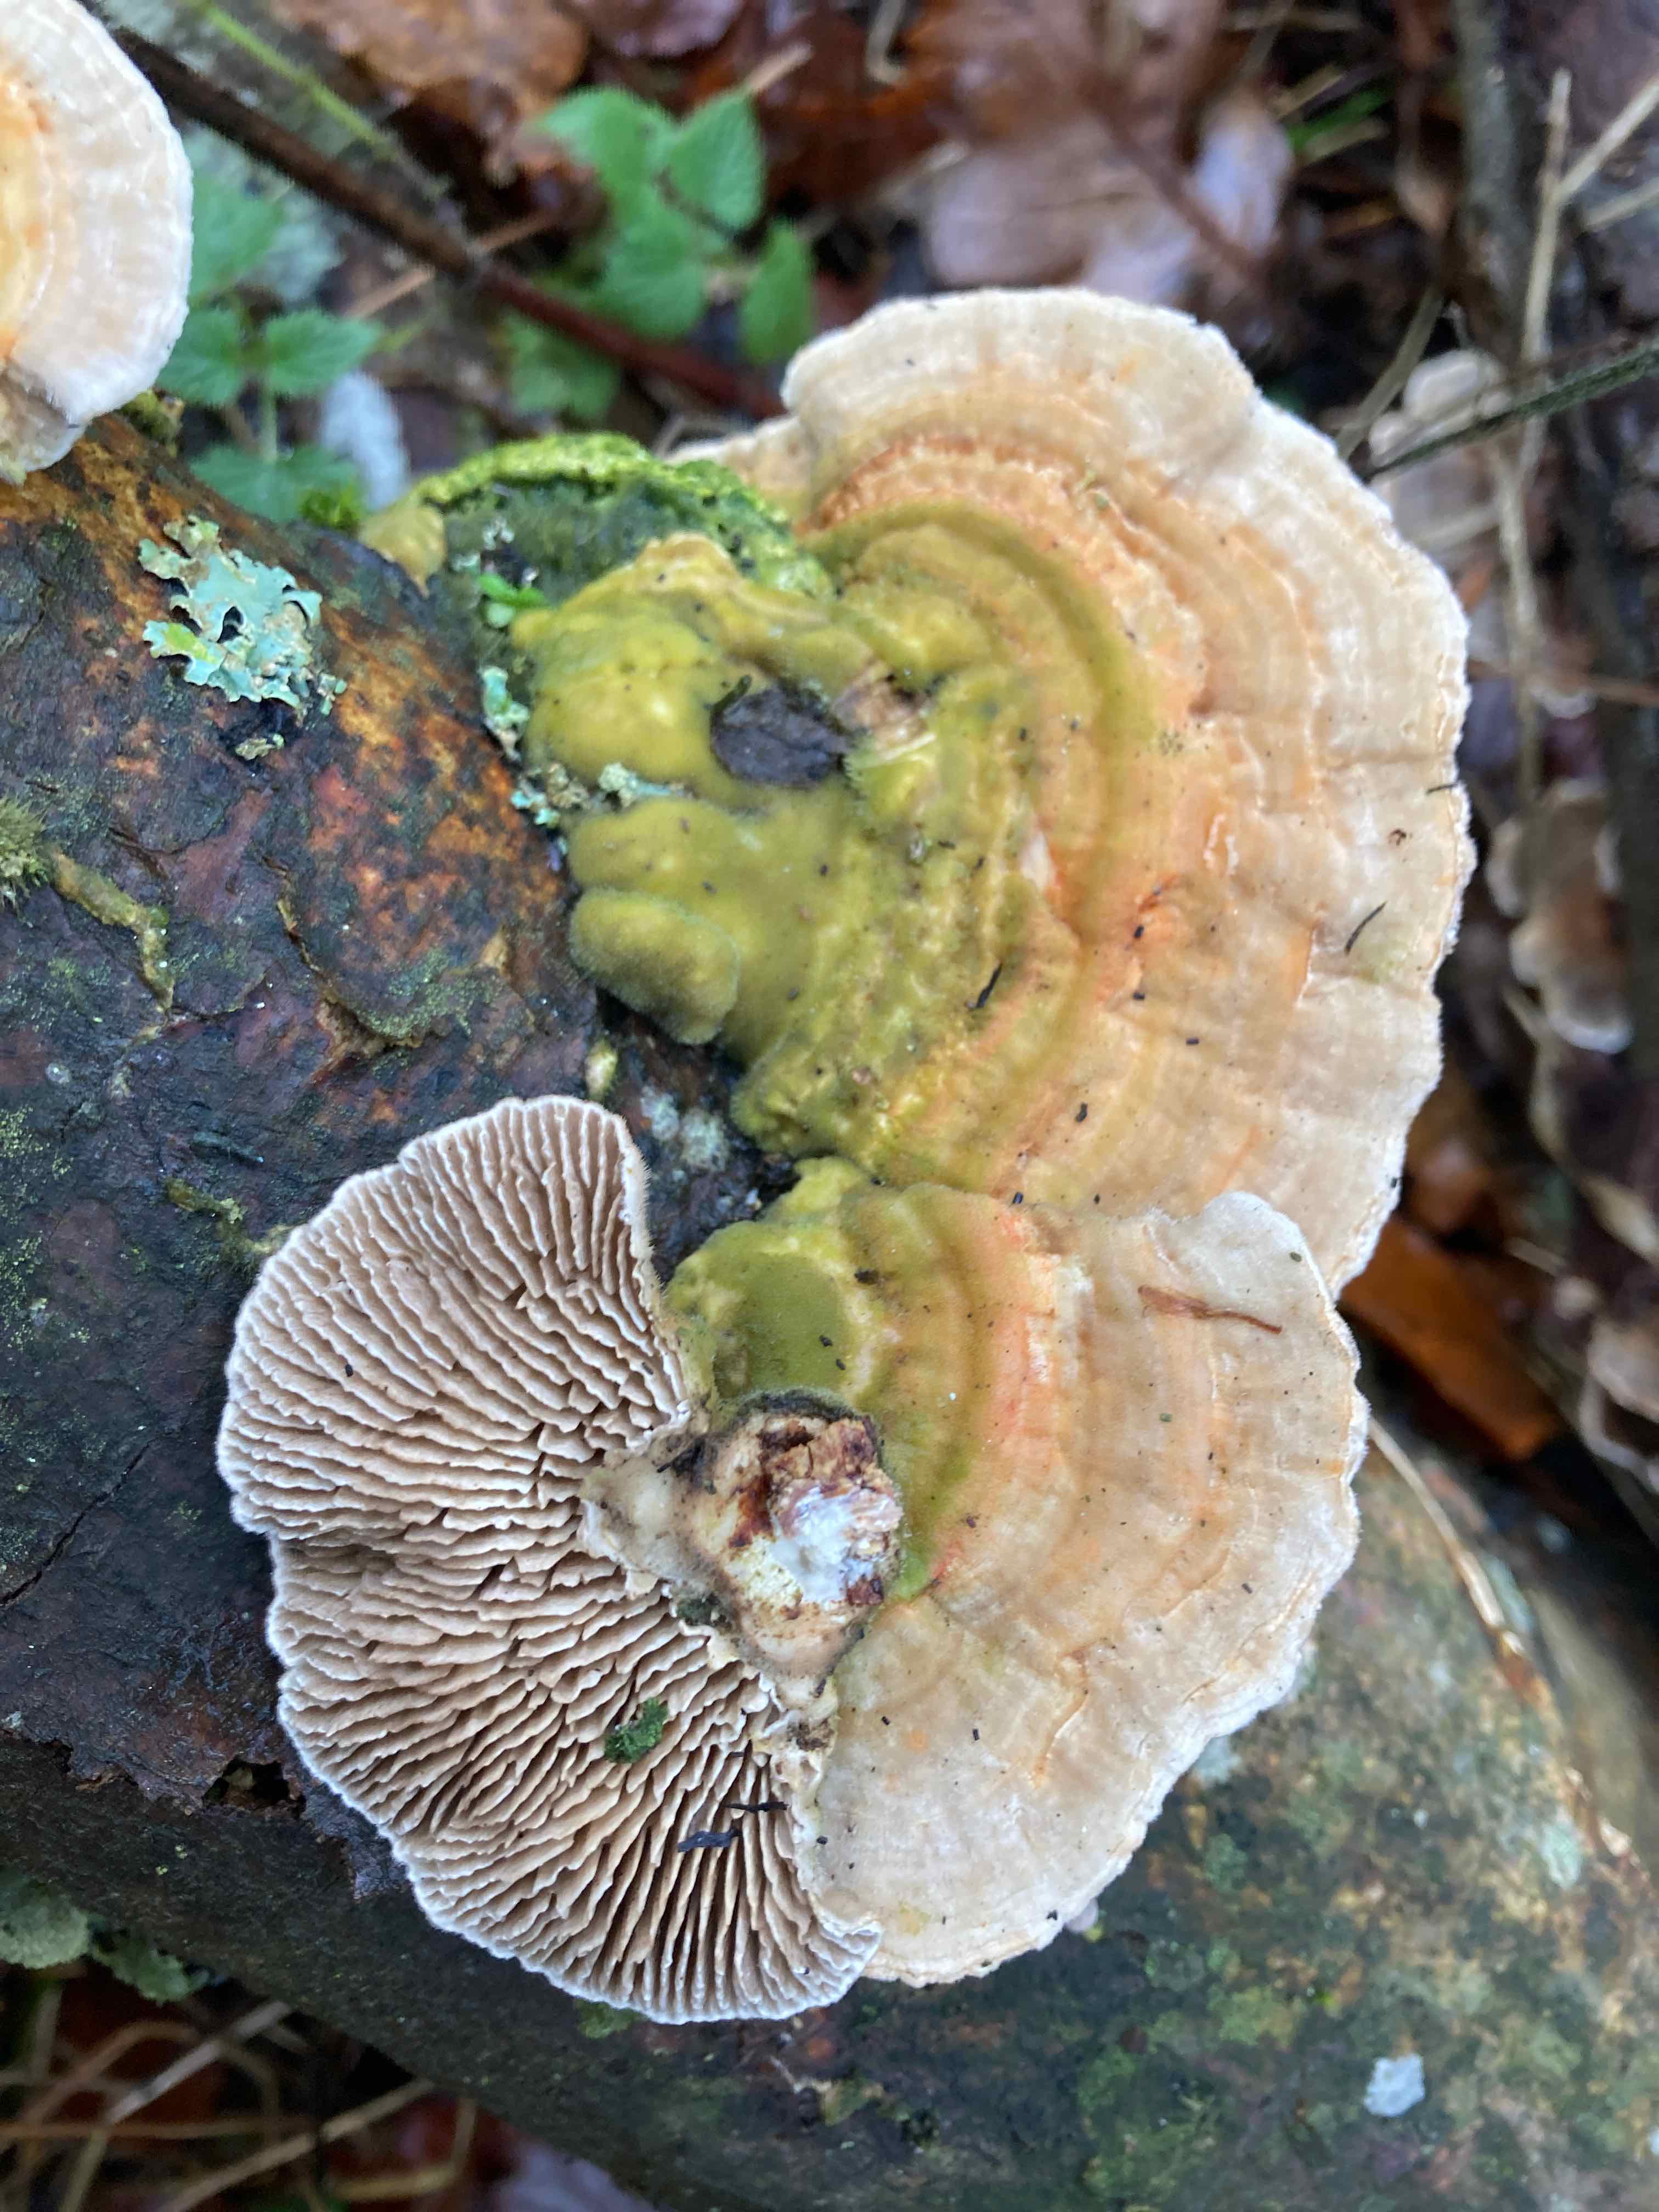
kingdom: Fungi
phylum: Basidiomycota
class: Agaricomycetes
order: Polyporales
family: Polyporaceae
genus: Lenzites
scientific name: Lenzites betulinus
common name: birke-læderporesvamp
